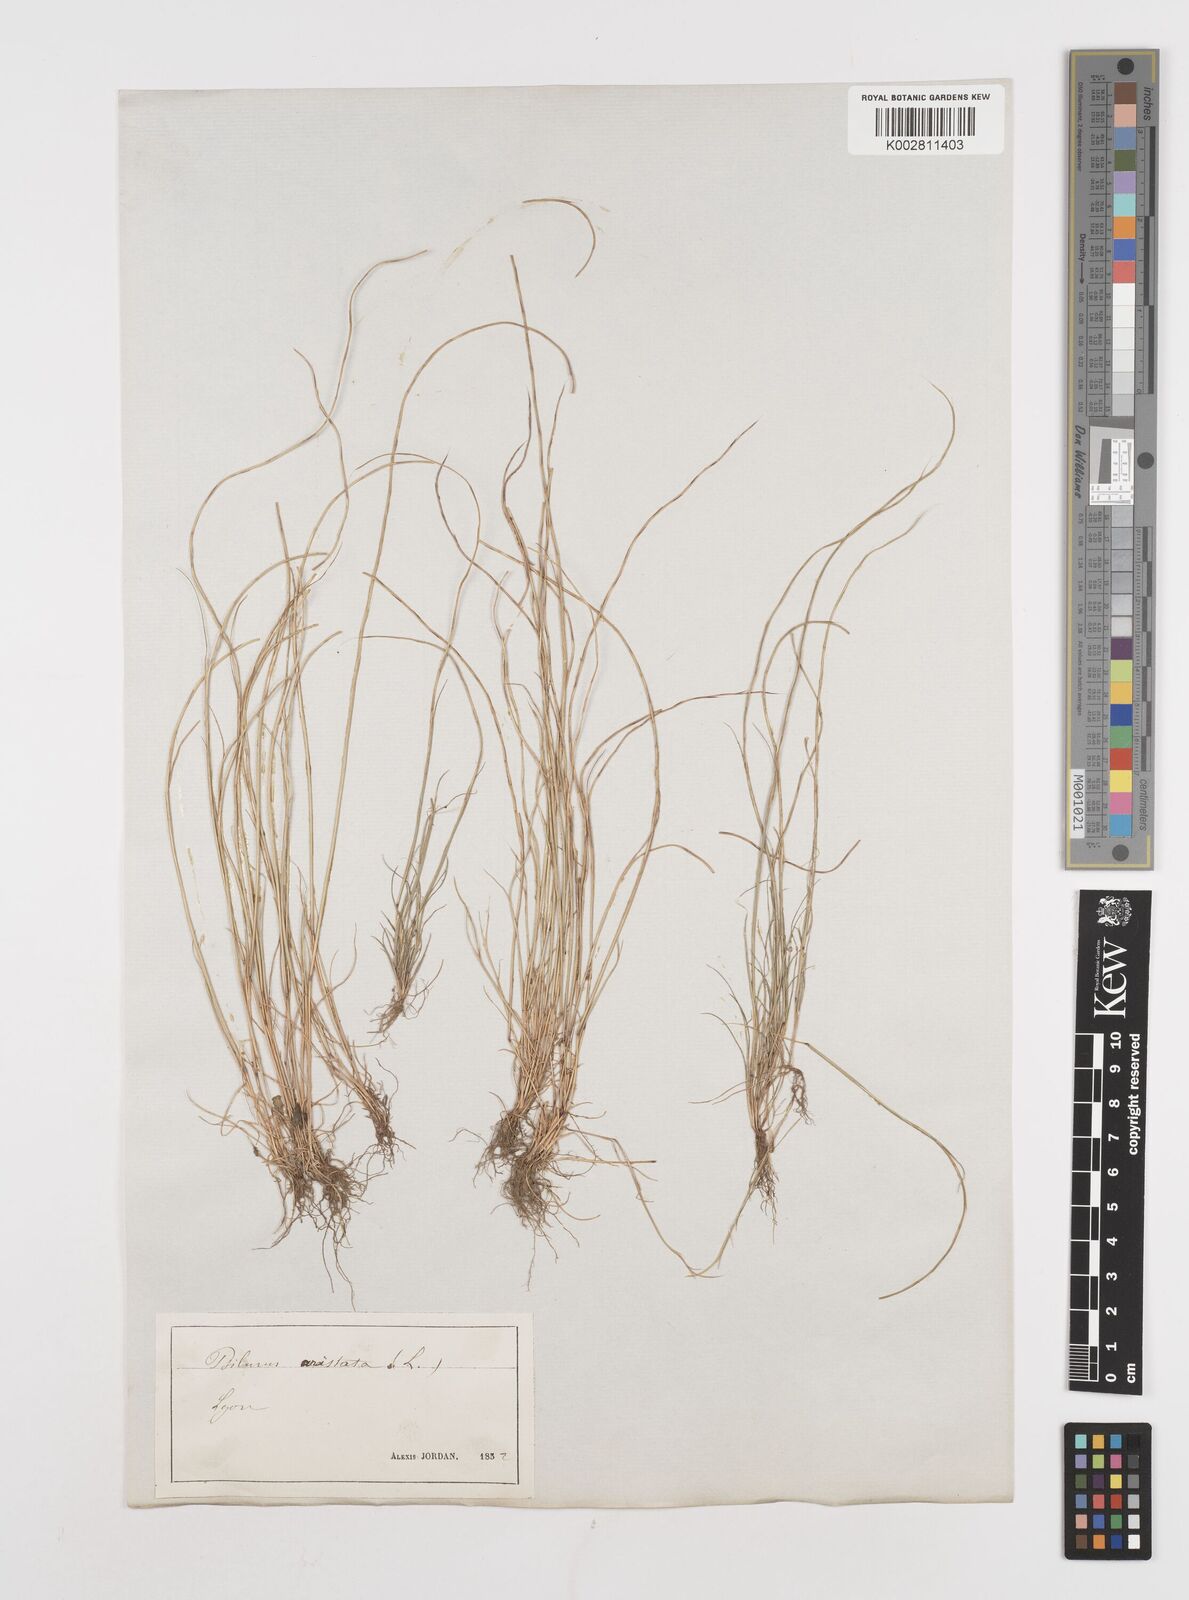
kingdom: Plantae
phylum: Tracheophyta
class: Liliopsida
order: Poales
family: Poaceae
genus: Festuca
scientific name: Festuca incurva
